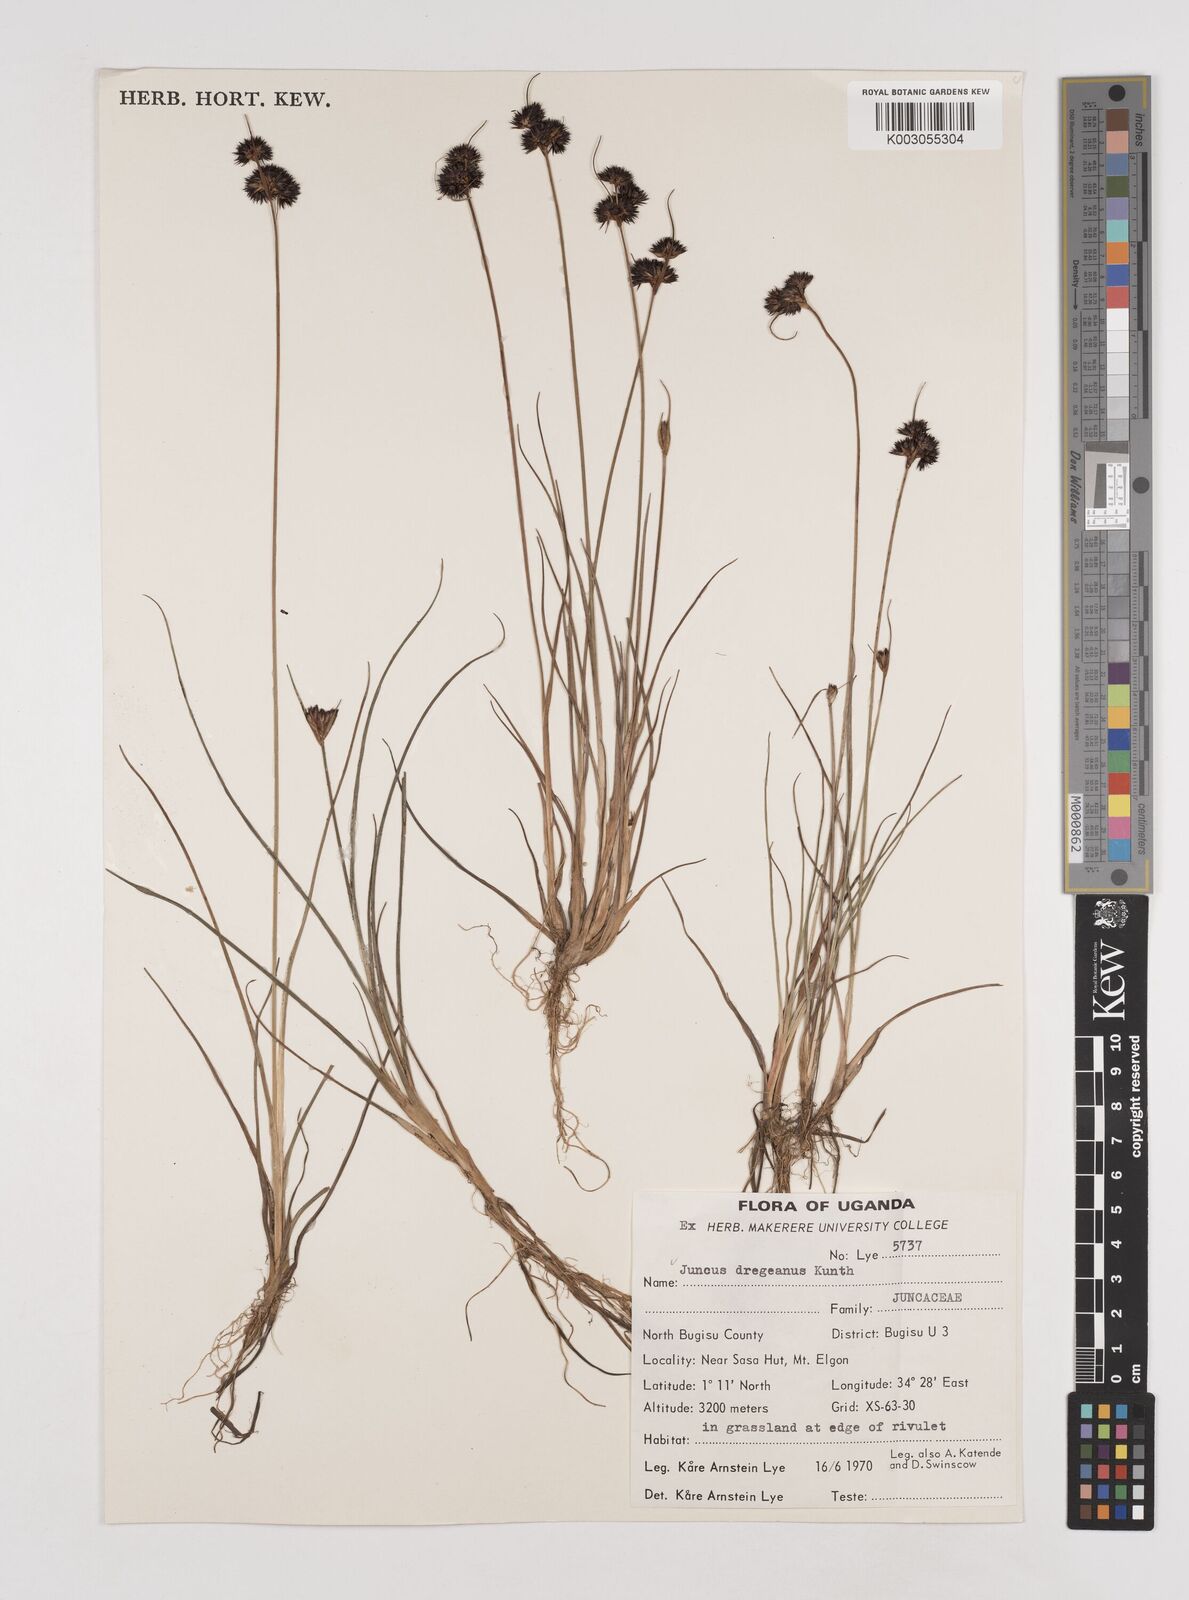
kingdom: Plantae
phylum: Tracheophyta
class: Liliopsida
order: Poales
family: Juncaceae
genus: Juncus
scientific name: Juncus dregeanus
